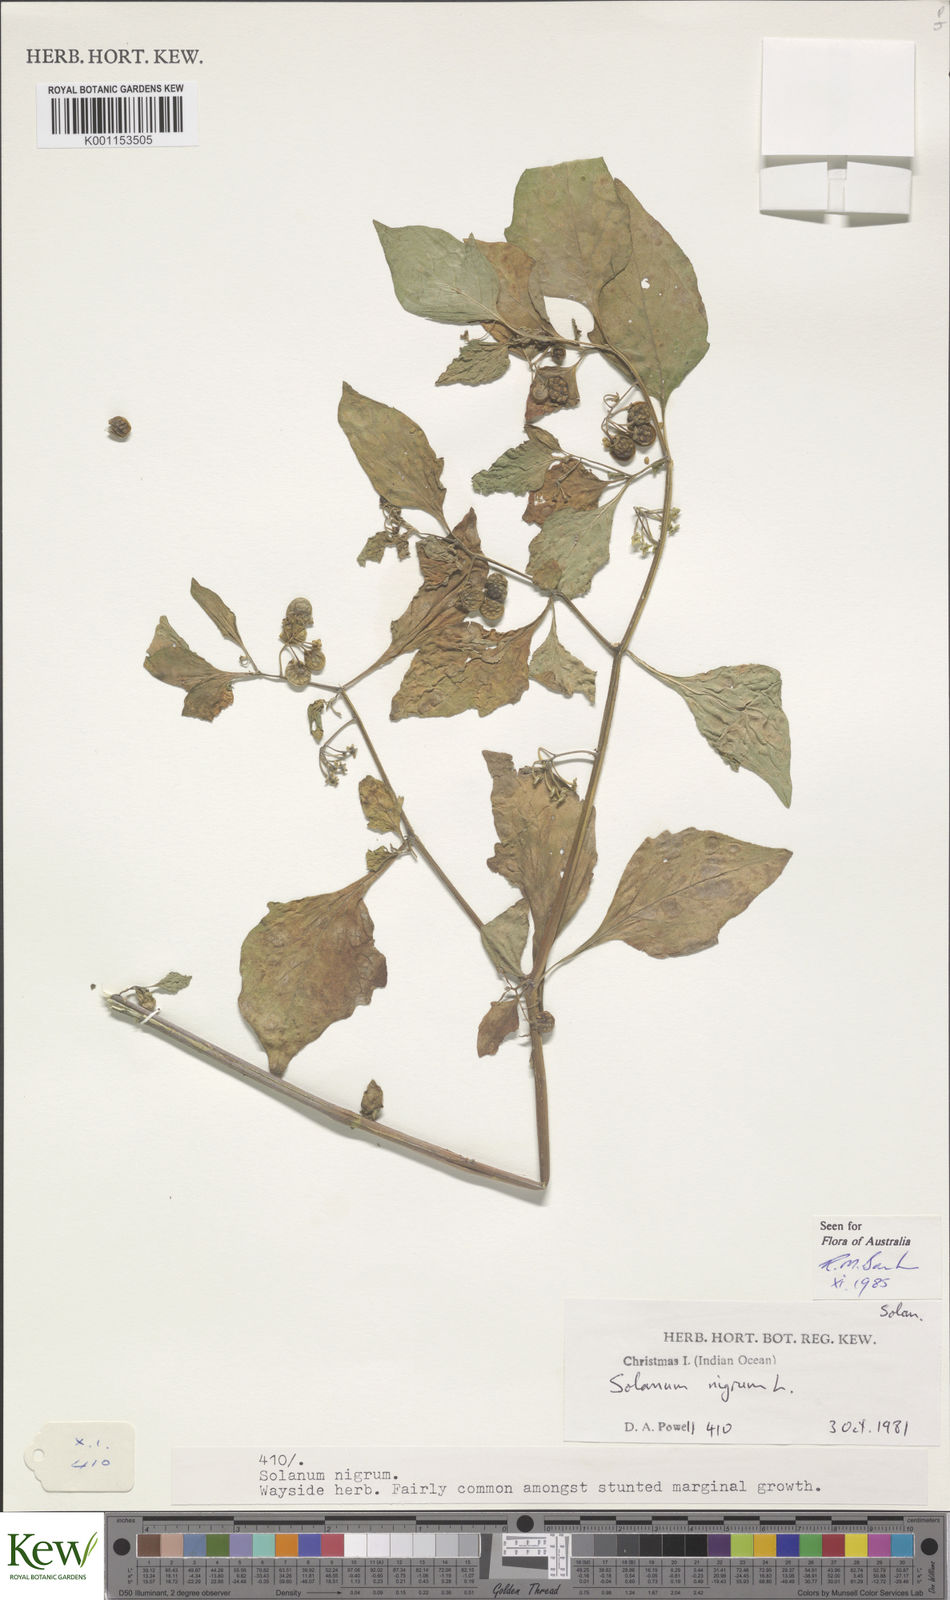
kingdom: Plantae
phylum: Tracheophyta
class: Magnoliopsida
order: Solanales
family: Solanaceae
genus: Solanum
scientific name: Solanum nigrum
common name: Black nightshade
